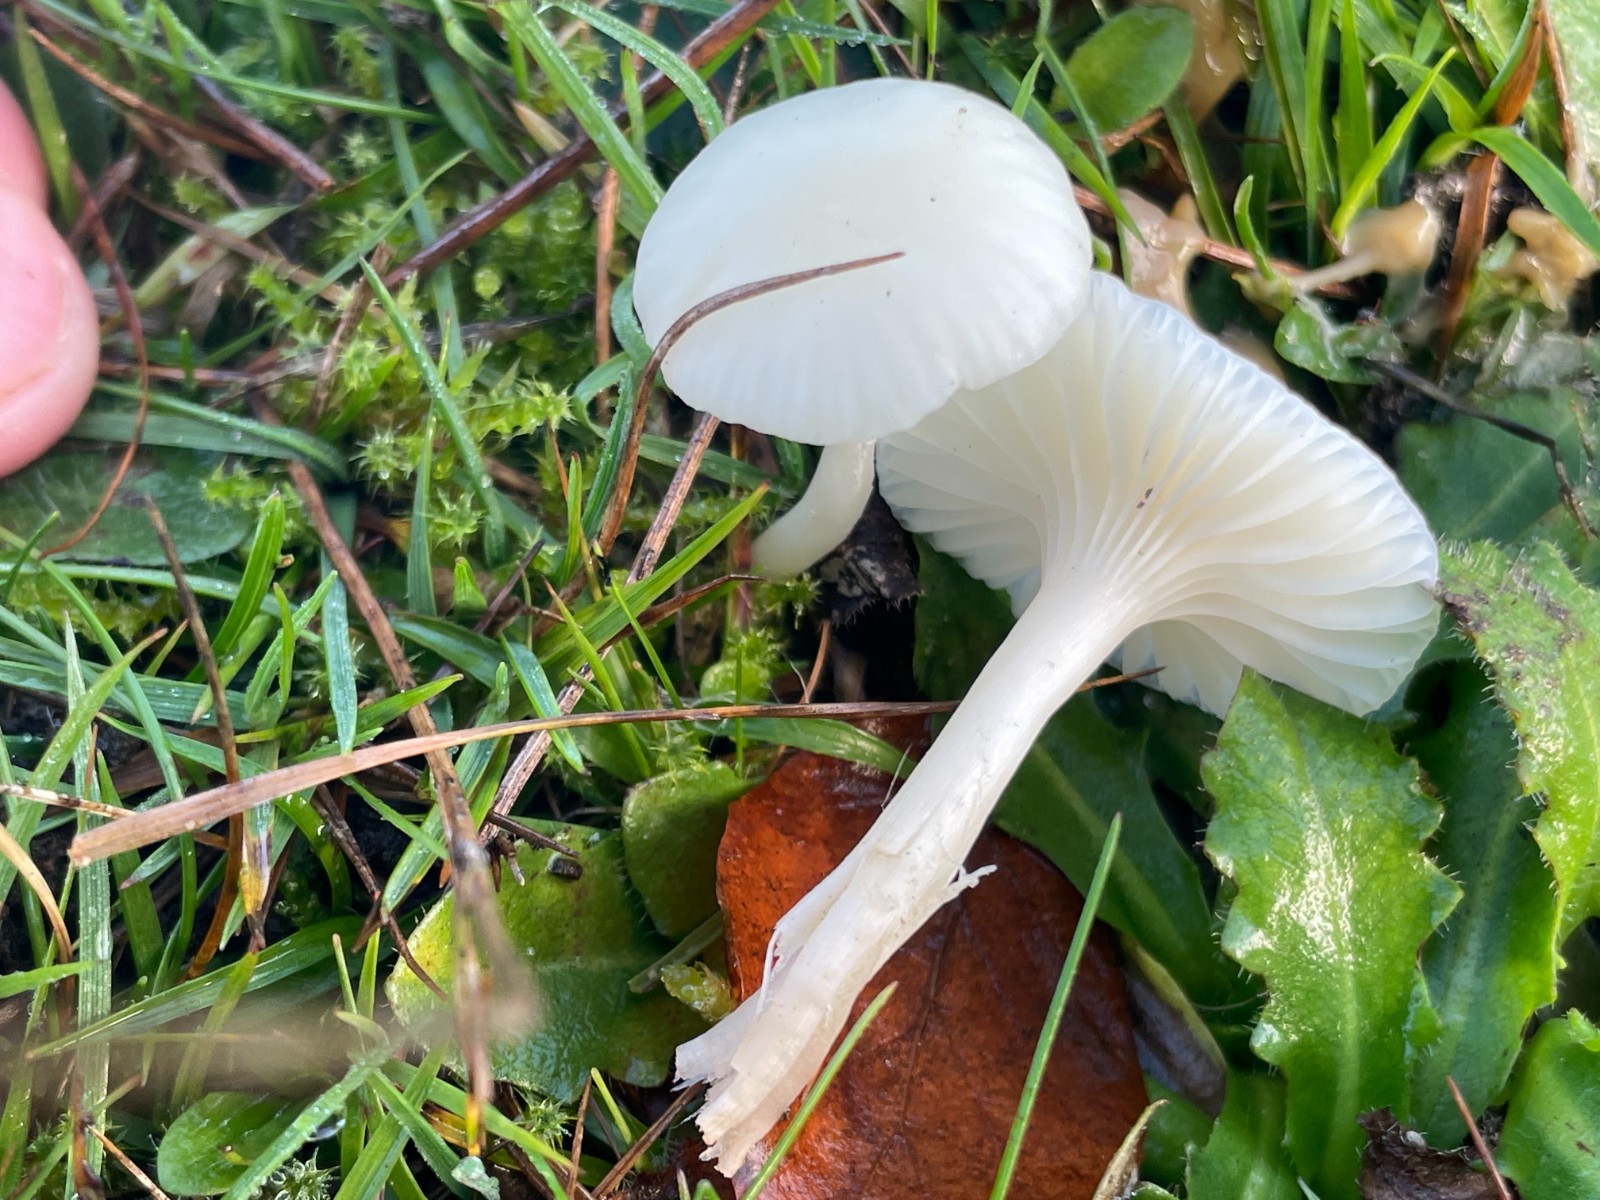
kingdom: Fungi
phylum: Basidiomycota
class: Agaricomycetes
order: Agaricales
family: Hygrophoraceae
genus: Cuphophyllus
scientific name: Cuphophyllus virgineus
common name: snehvid vokshat
